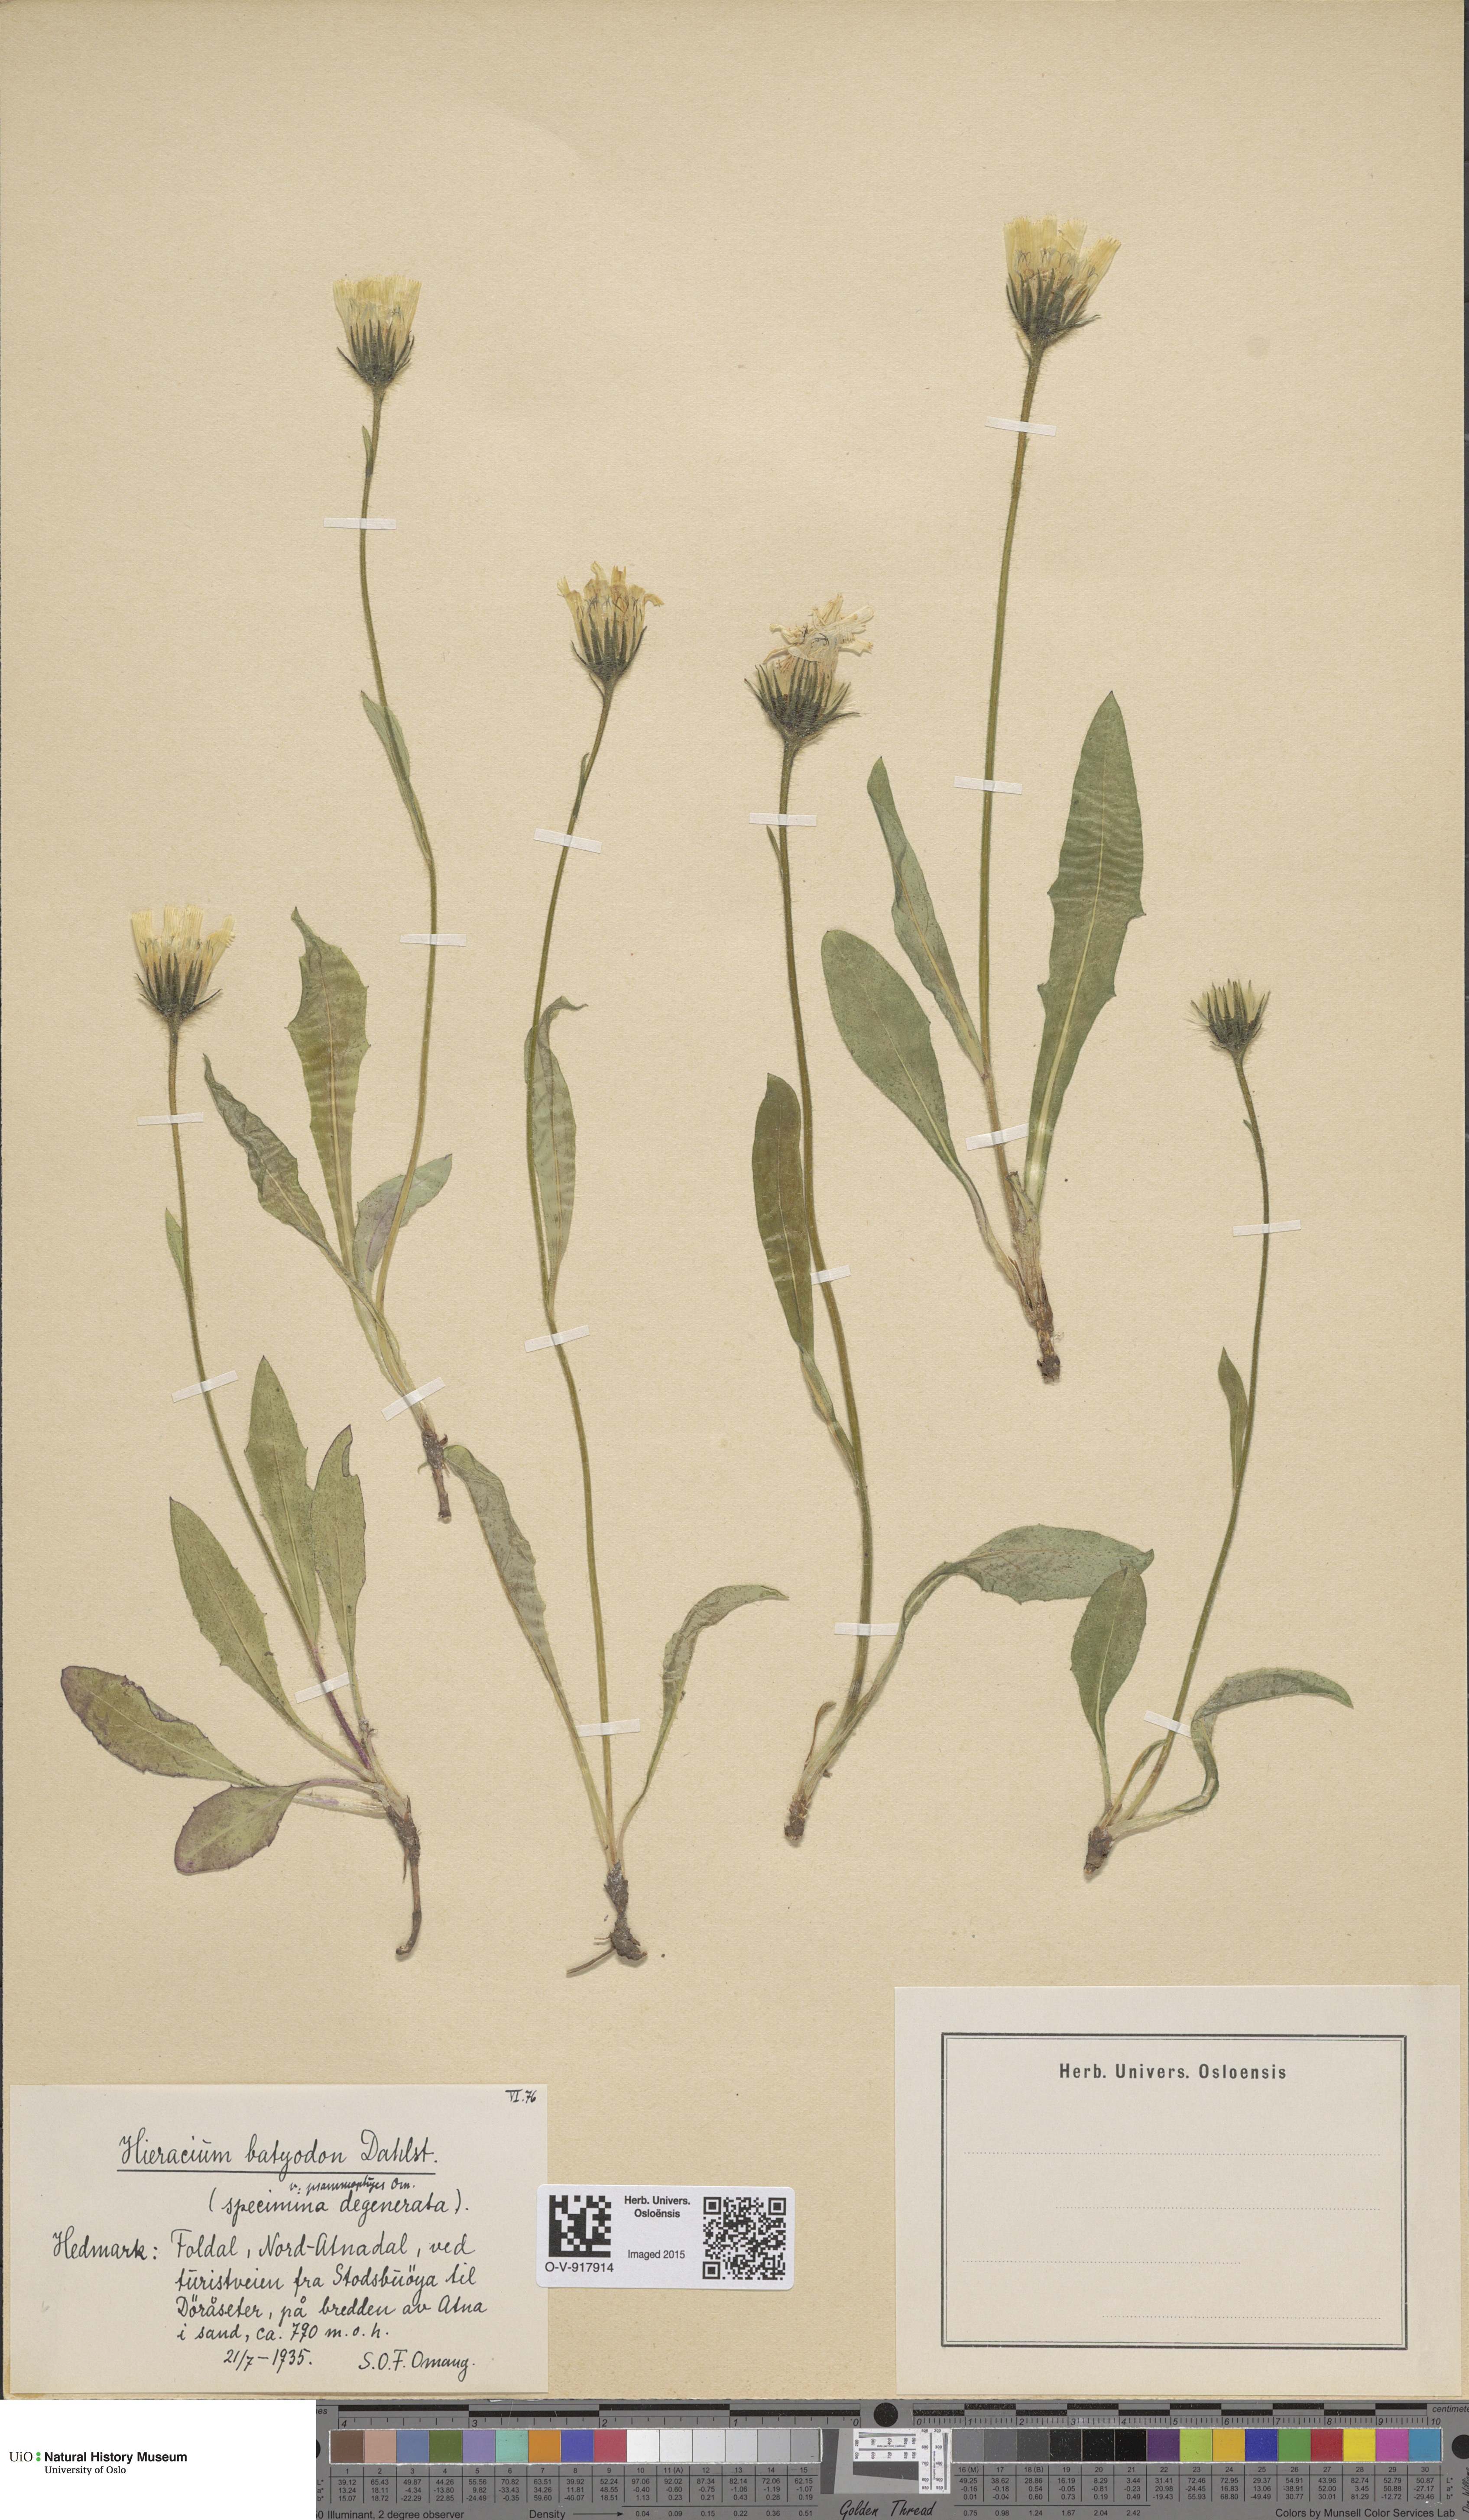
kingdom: Plantae
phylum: Tracheophyta
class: Magnoliopsida
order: Asterales
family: Asteraceae
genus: Hieracium
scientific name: Hieracium
